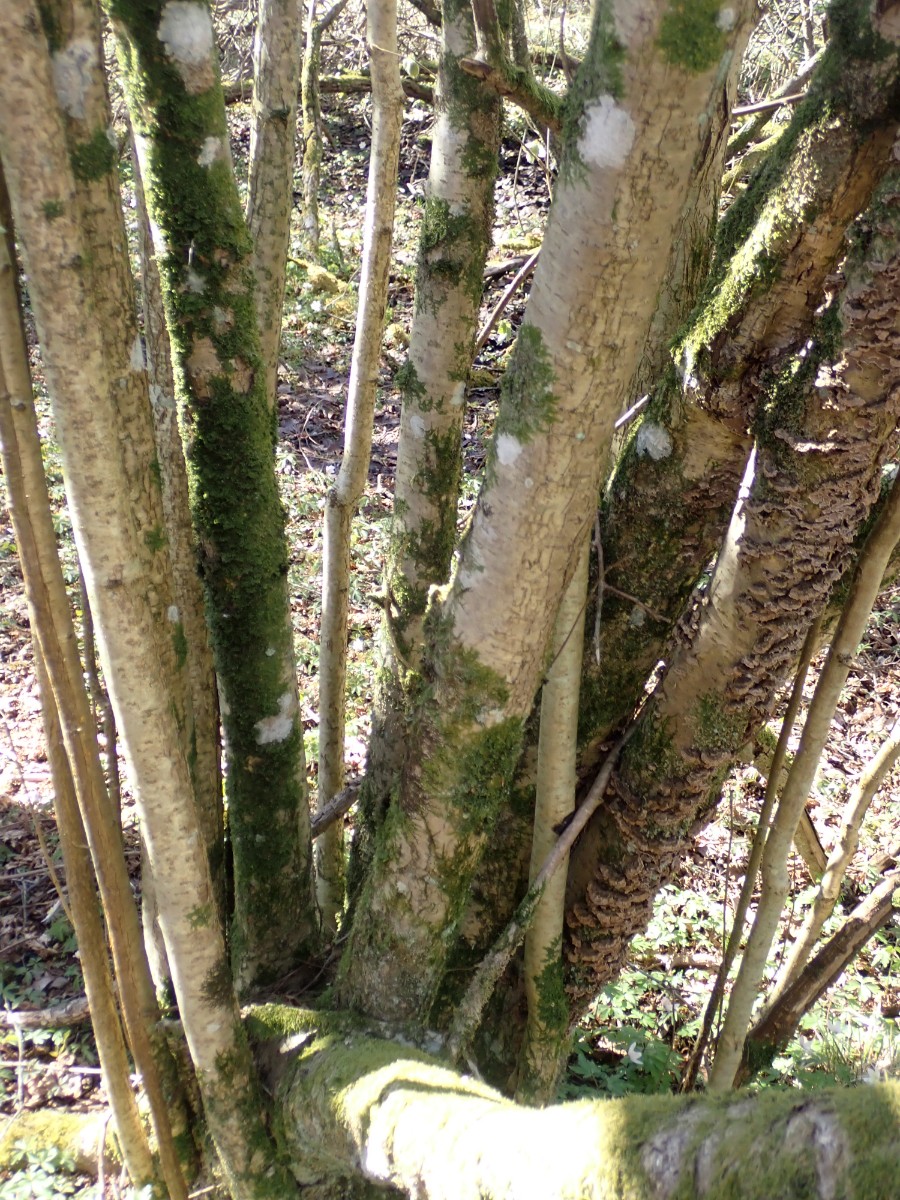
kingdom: Fungi
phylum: Basidiomycota
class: Agaricomycetes
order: Hymenochaetales
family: Hymenochaetaceae
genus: Hydnoporia
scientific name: Hydnoporia tabacina
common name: tobaksbrun ruslædersvamp
